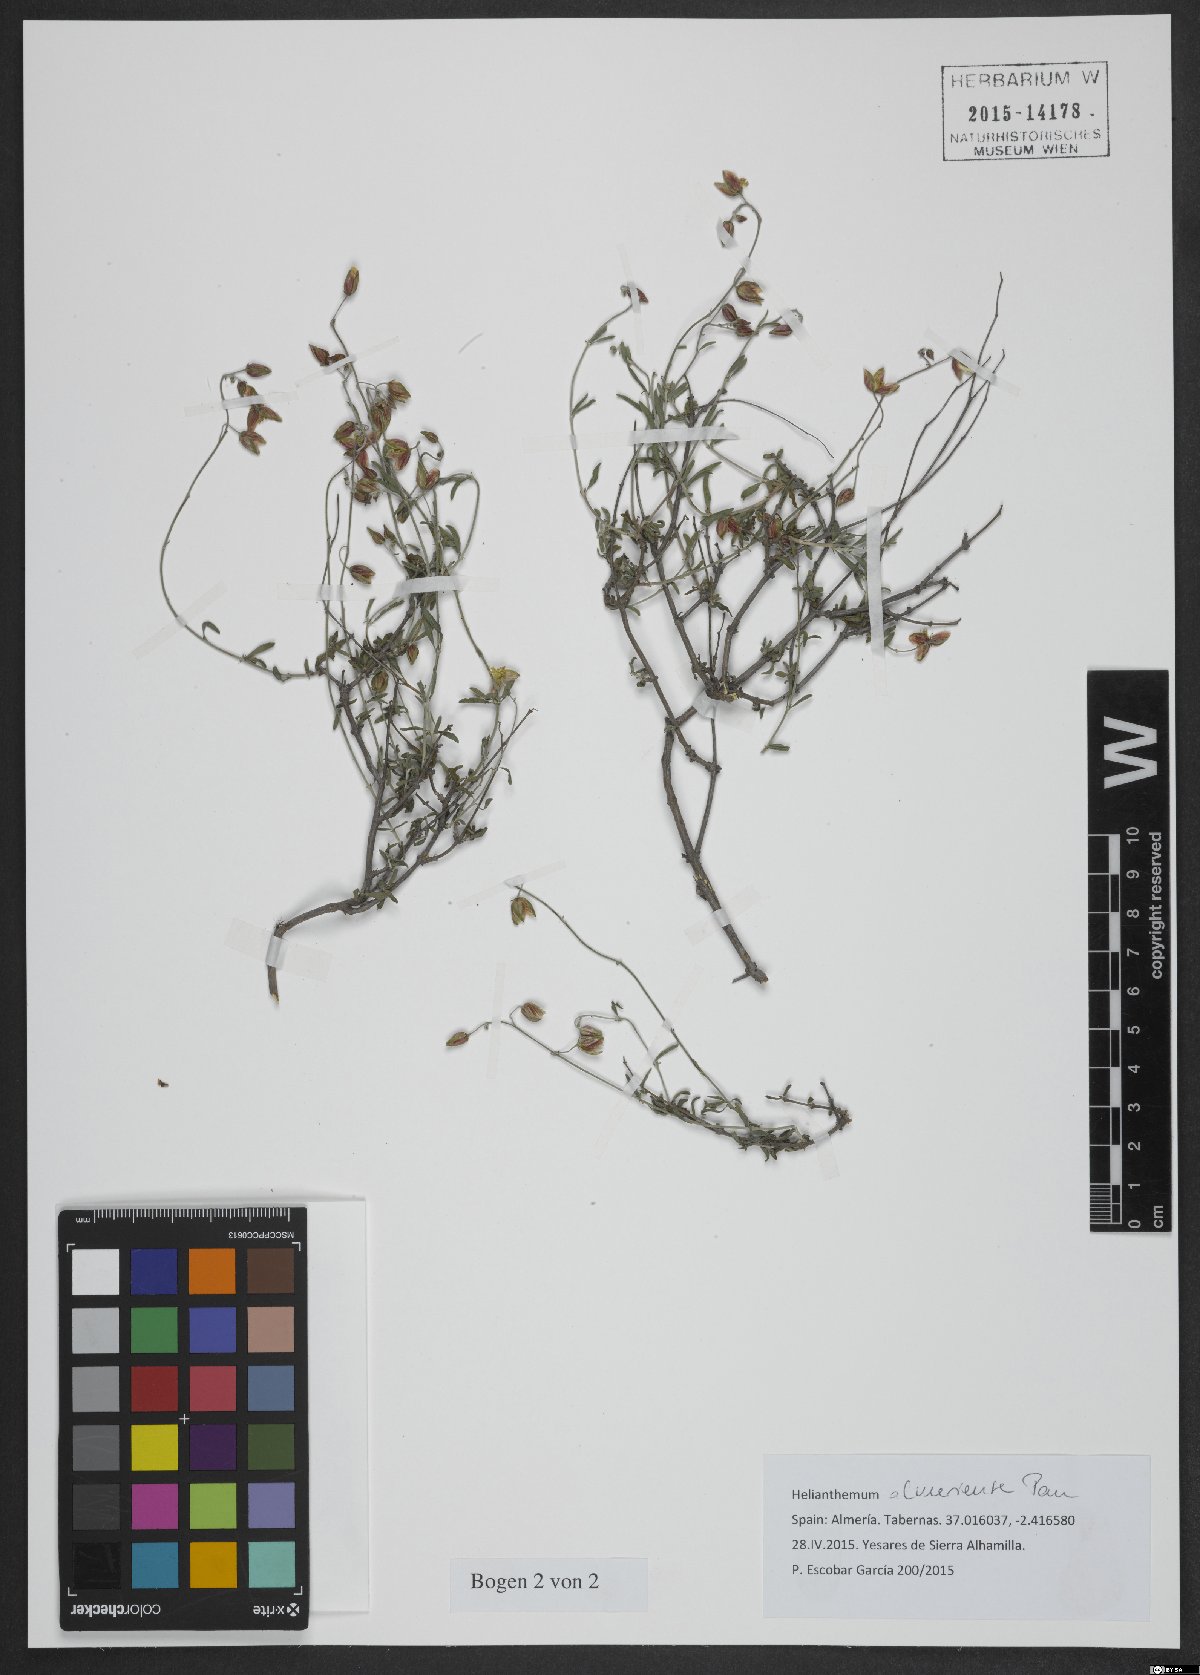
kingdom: Plantae
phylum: Tracheophyta
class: Magnoliopsida
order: Malvales
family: Cistaceae
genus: Helianthemum
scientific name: Helianthemum almeriense
